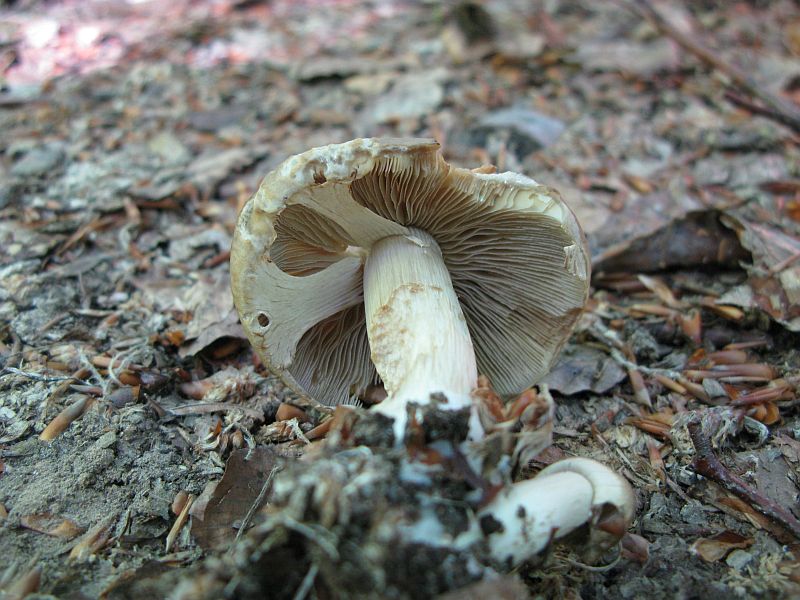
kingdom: Fungi
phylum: Basidiomycota
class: Agaricomycetes
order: Agaricales
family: Strophariaceae
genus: Agrocybe
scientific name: Agrocybe praecox
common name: tidlig agerhat
